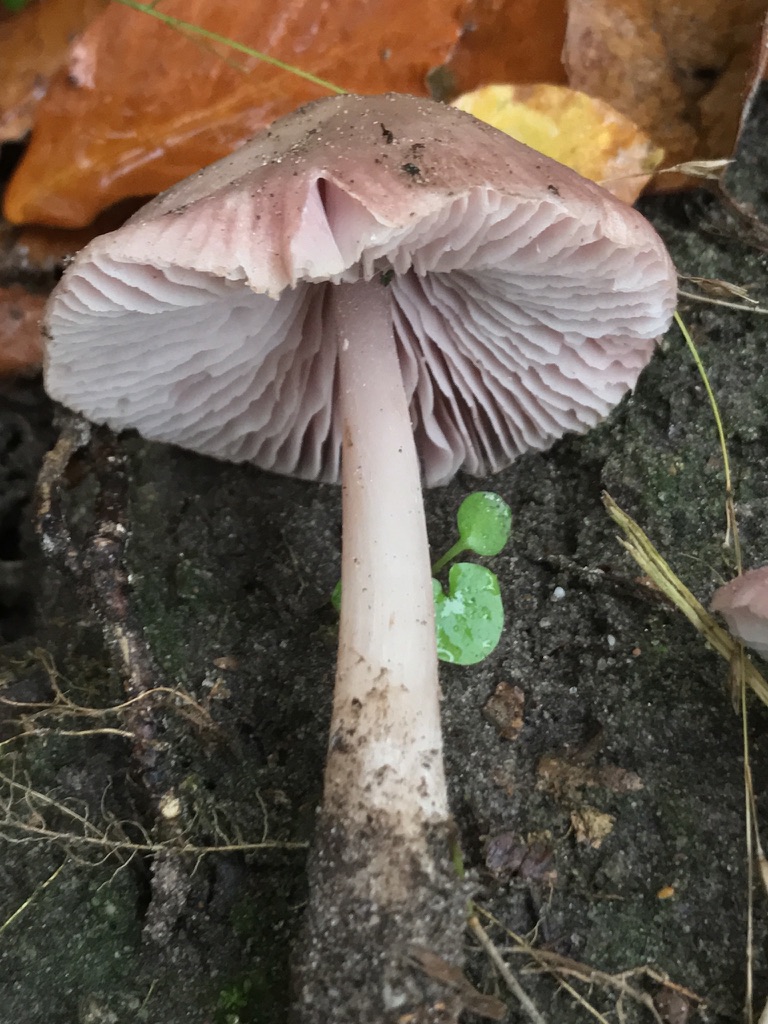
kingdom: Fungi
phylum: Basidiomycota
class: Agaricomycetes
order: Agaricales
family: Mycenaceae
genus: Mycena
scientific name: Mycena rosea
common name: rosa huesvamp
